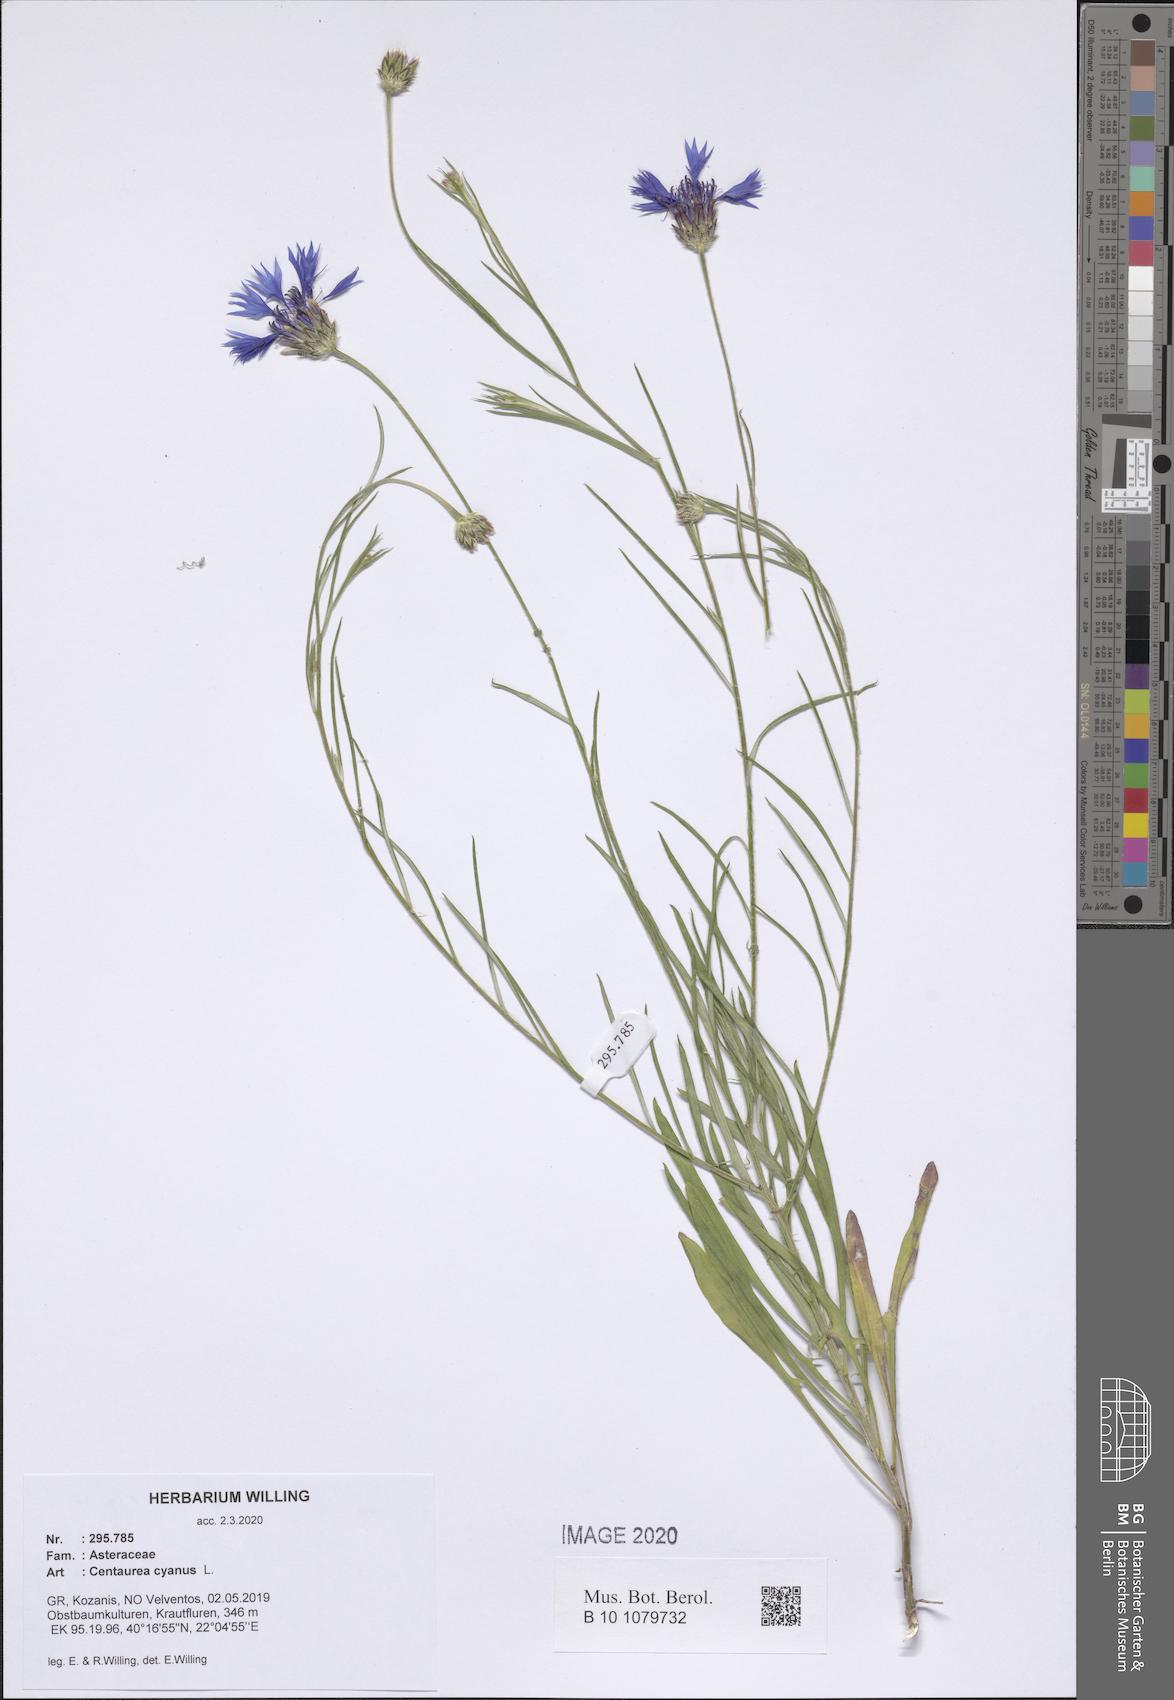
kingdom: Plantae
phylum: Tracheophyta
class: Magnoliopsida
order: Asterales
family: Asteraceae
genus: Centaurea
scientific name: Centaurea cyanus
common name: Cornflower
